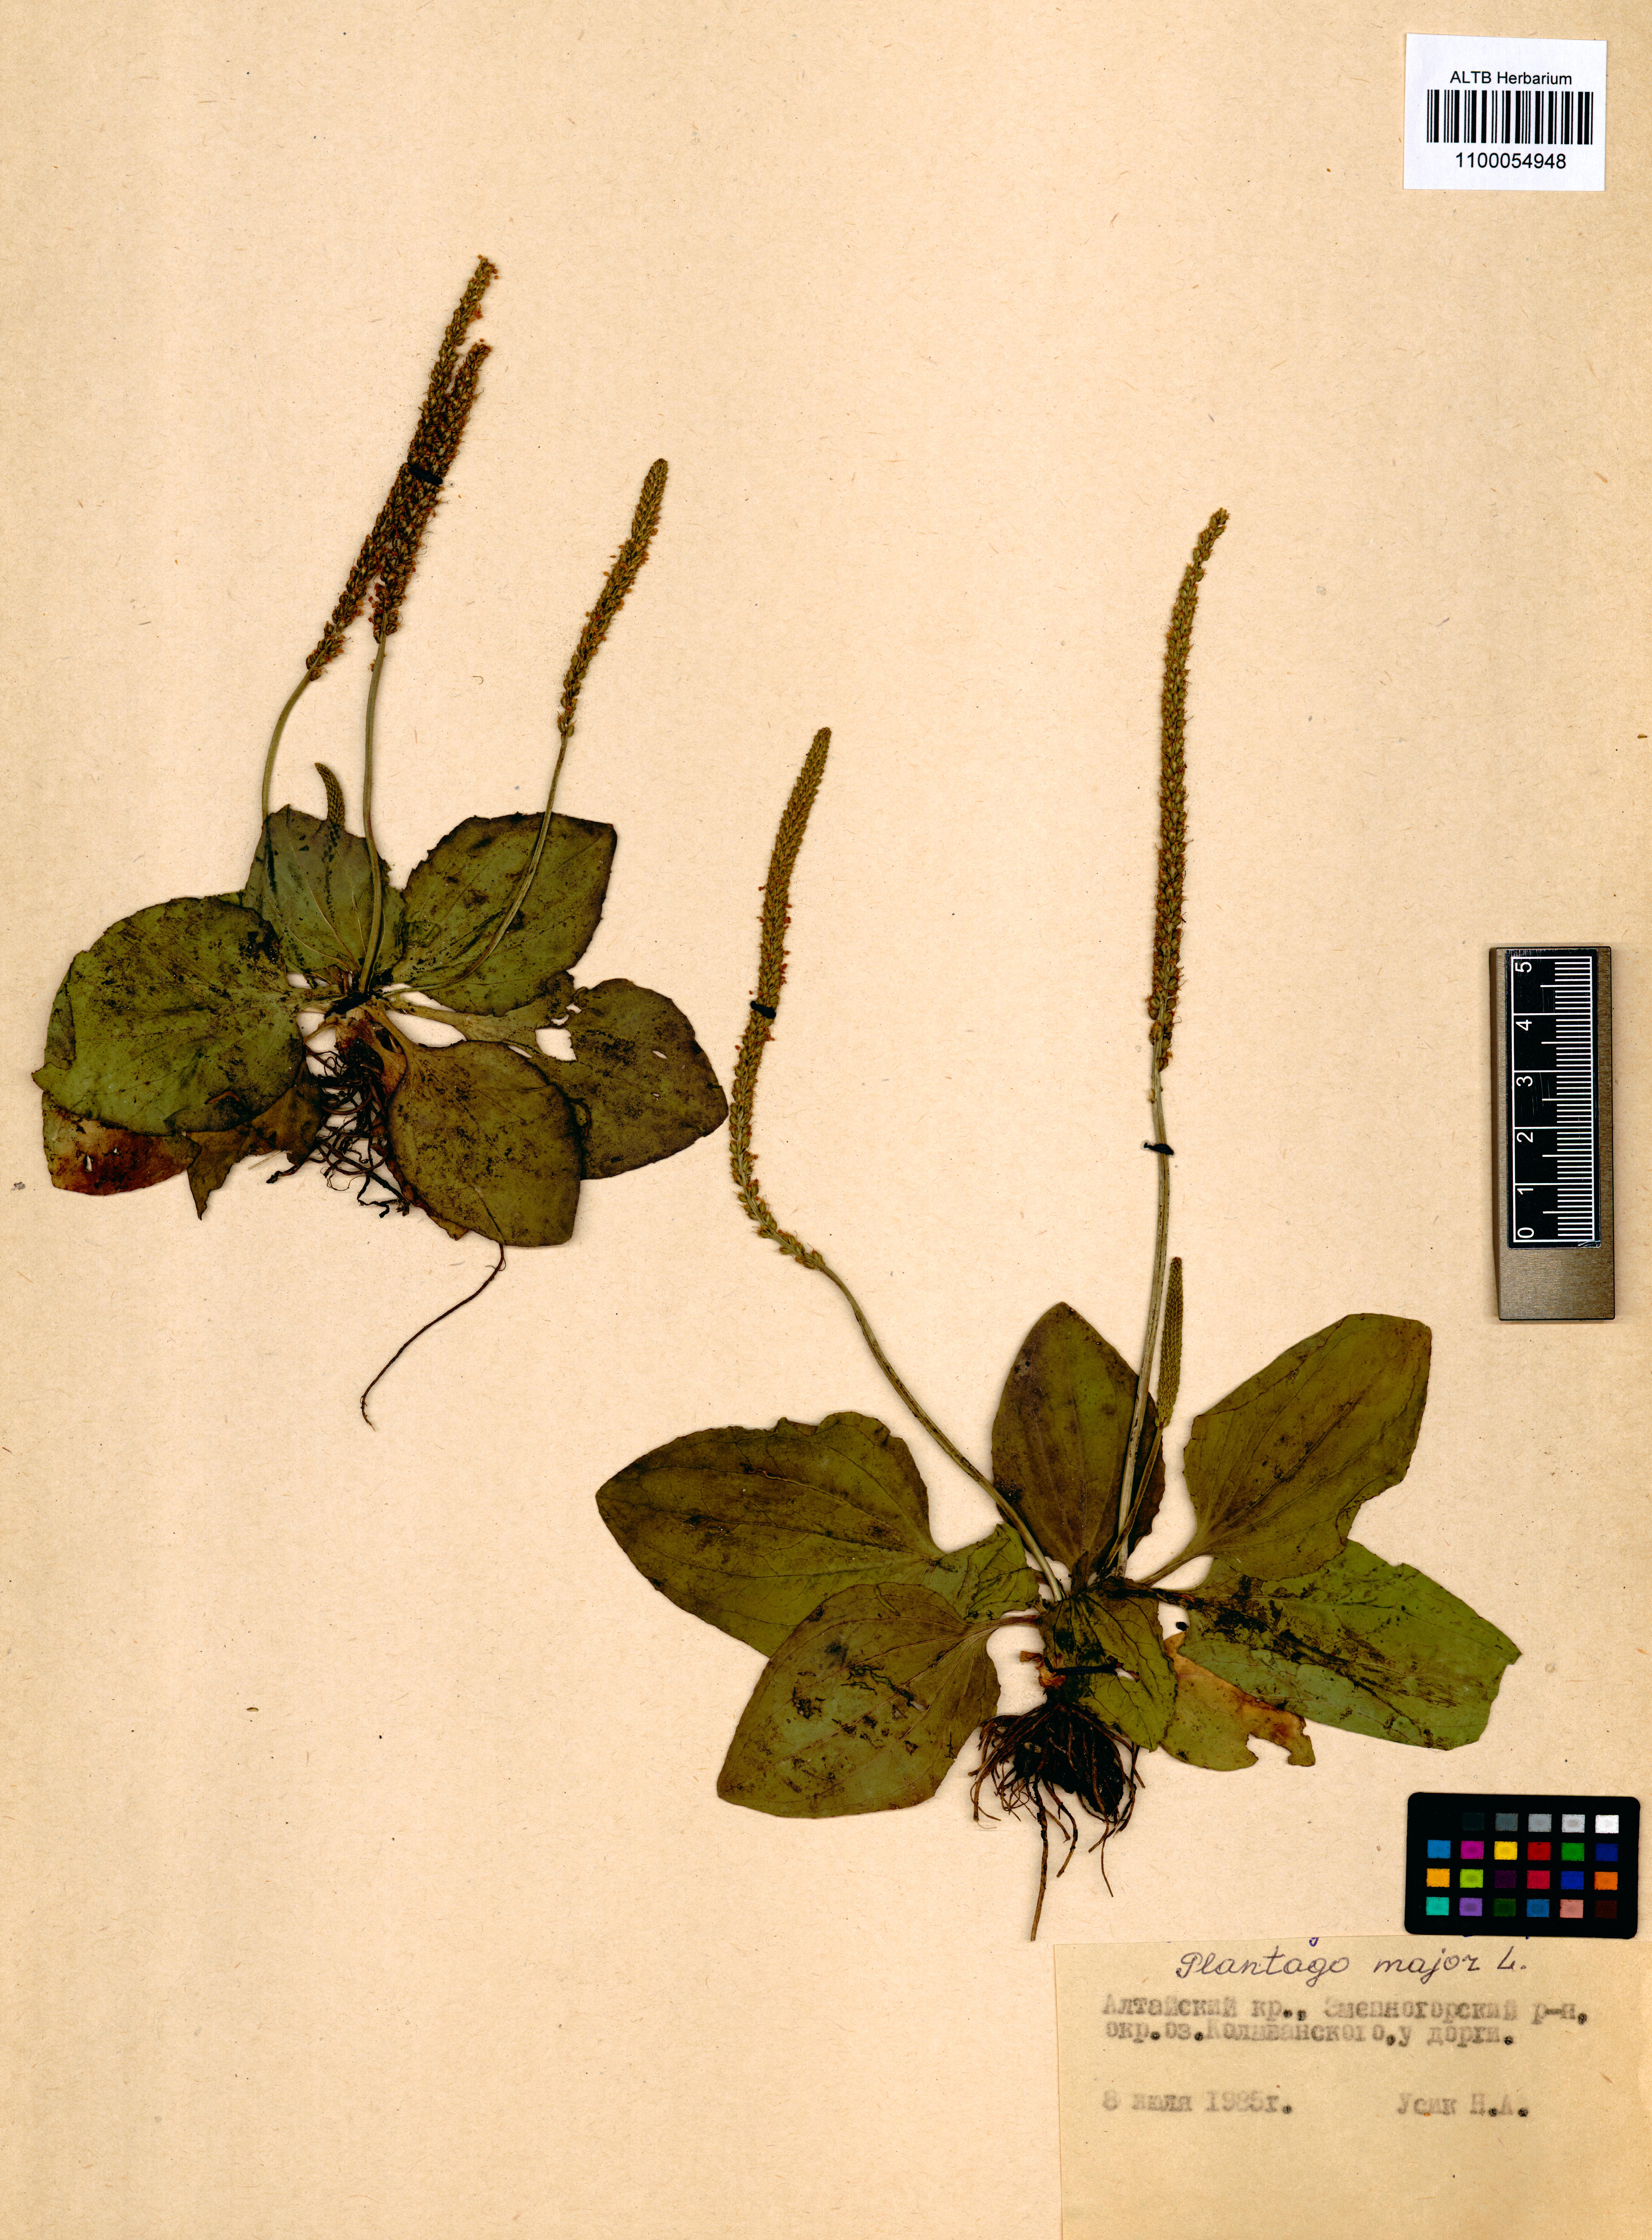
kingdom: Plantae
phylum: Tracheophyta
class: Magnoliopsida
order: Lamiales
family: Plantaginaceae
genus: Plantago
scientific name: Plantago major
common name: Common plantain
